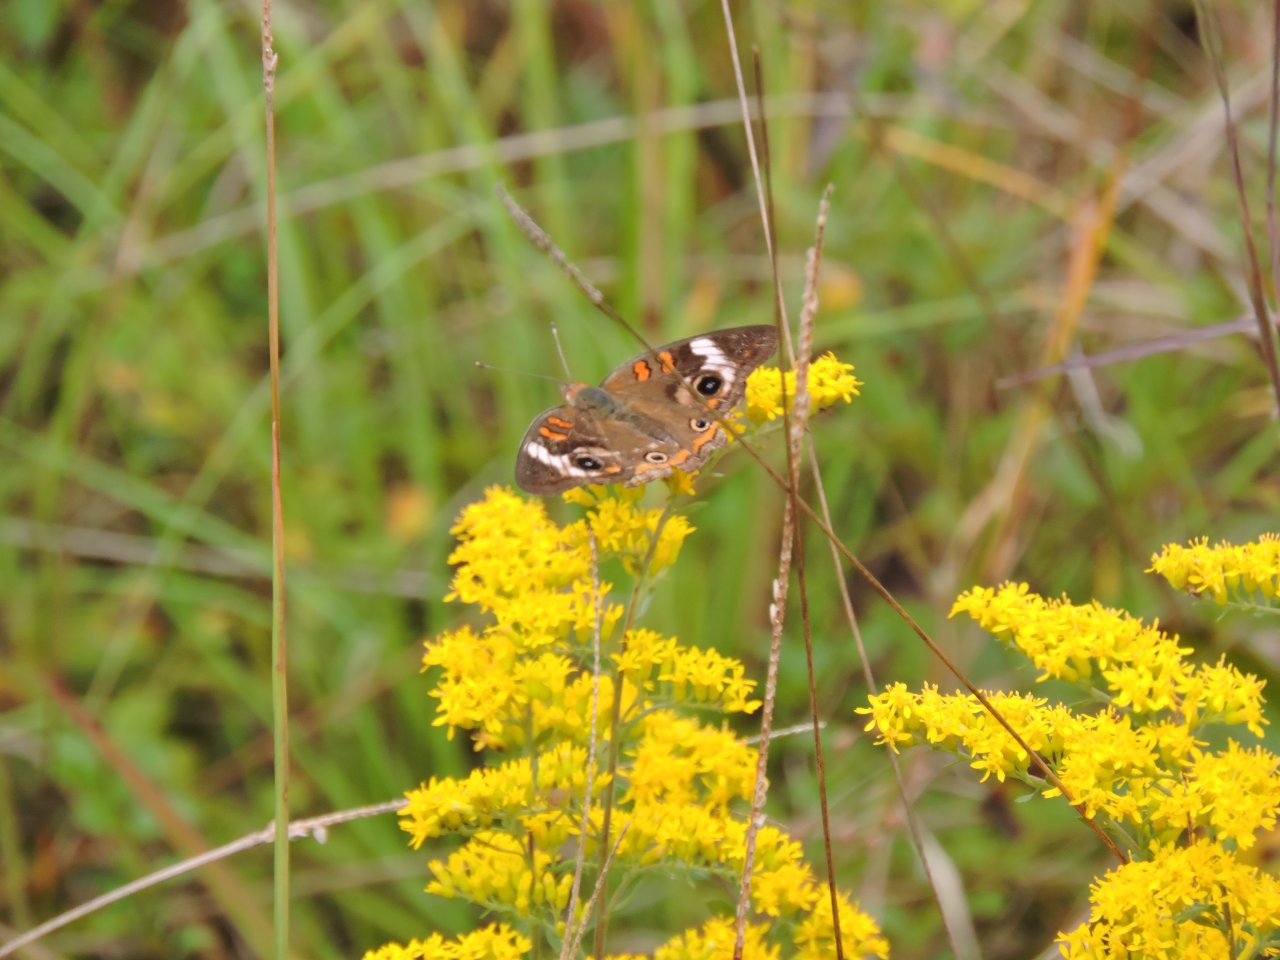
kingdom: Animalia
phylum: Arthropoda
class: Insecta
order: Lepidoptera
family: Nymphalidae
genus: Junonia
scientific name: Junonia coenia
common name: Common Buckeye
